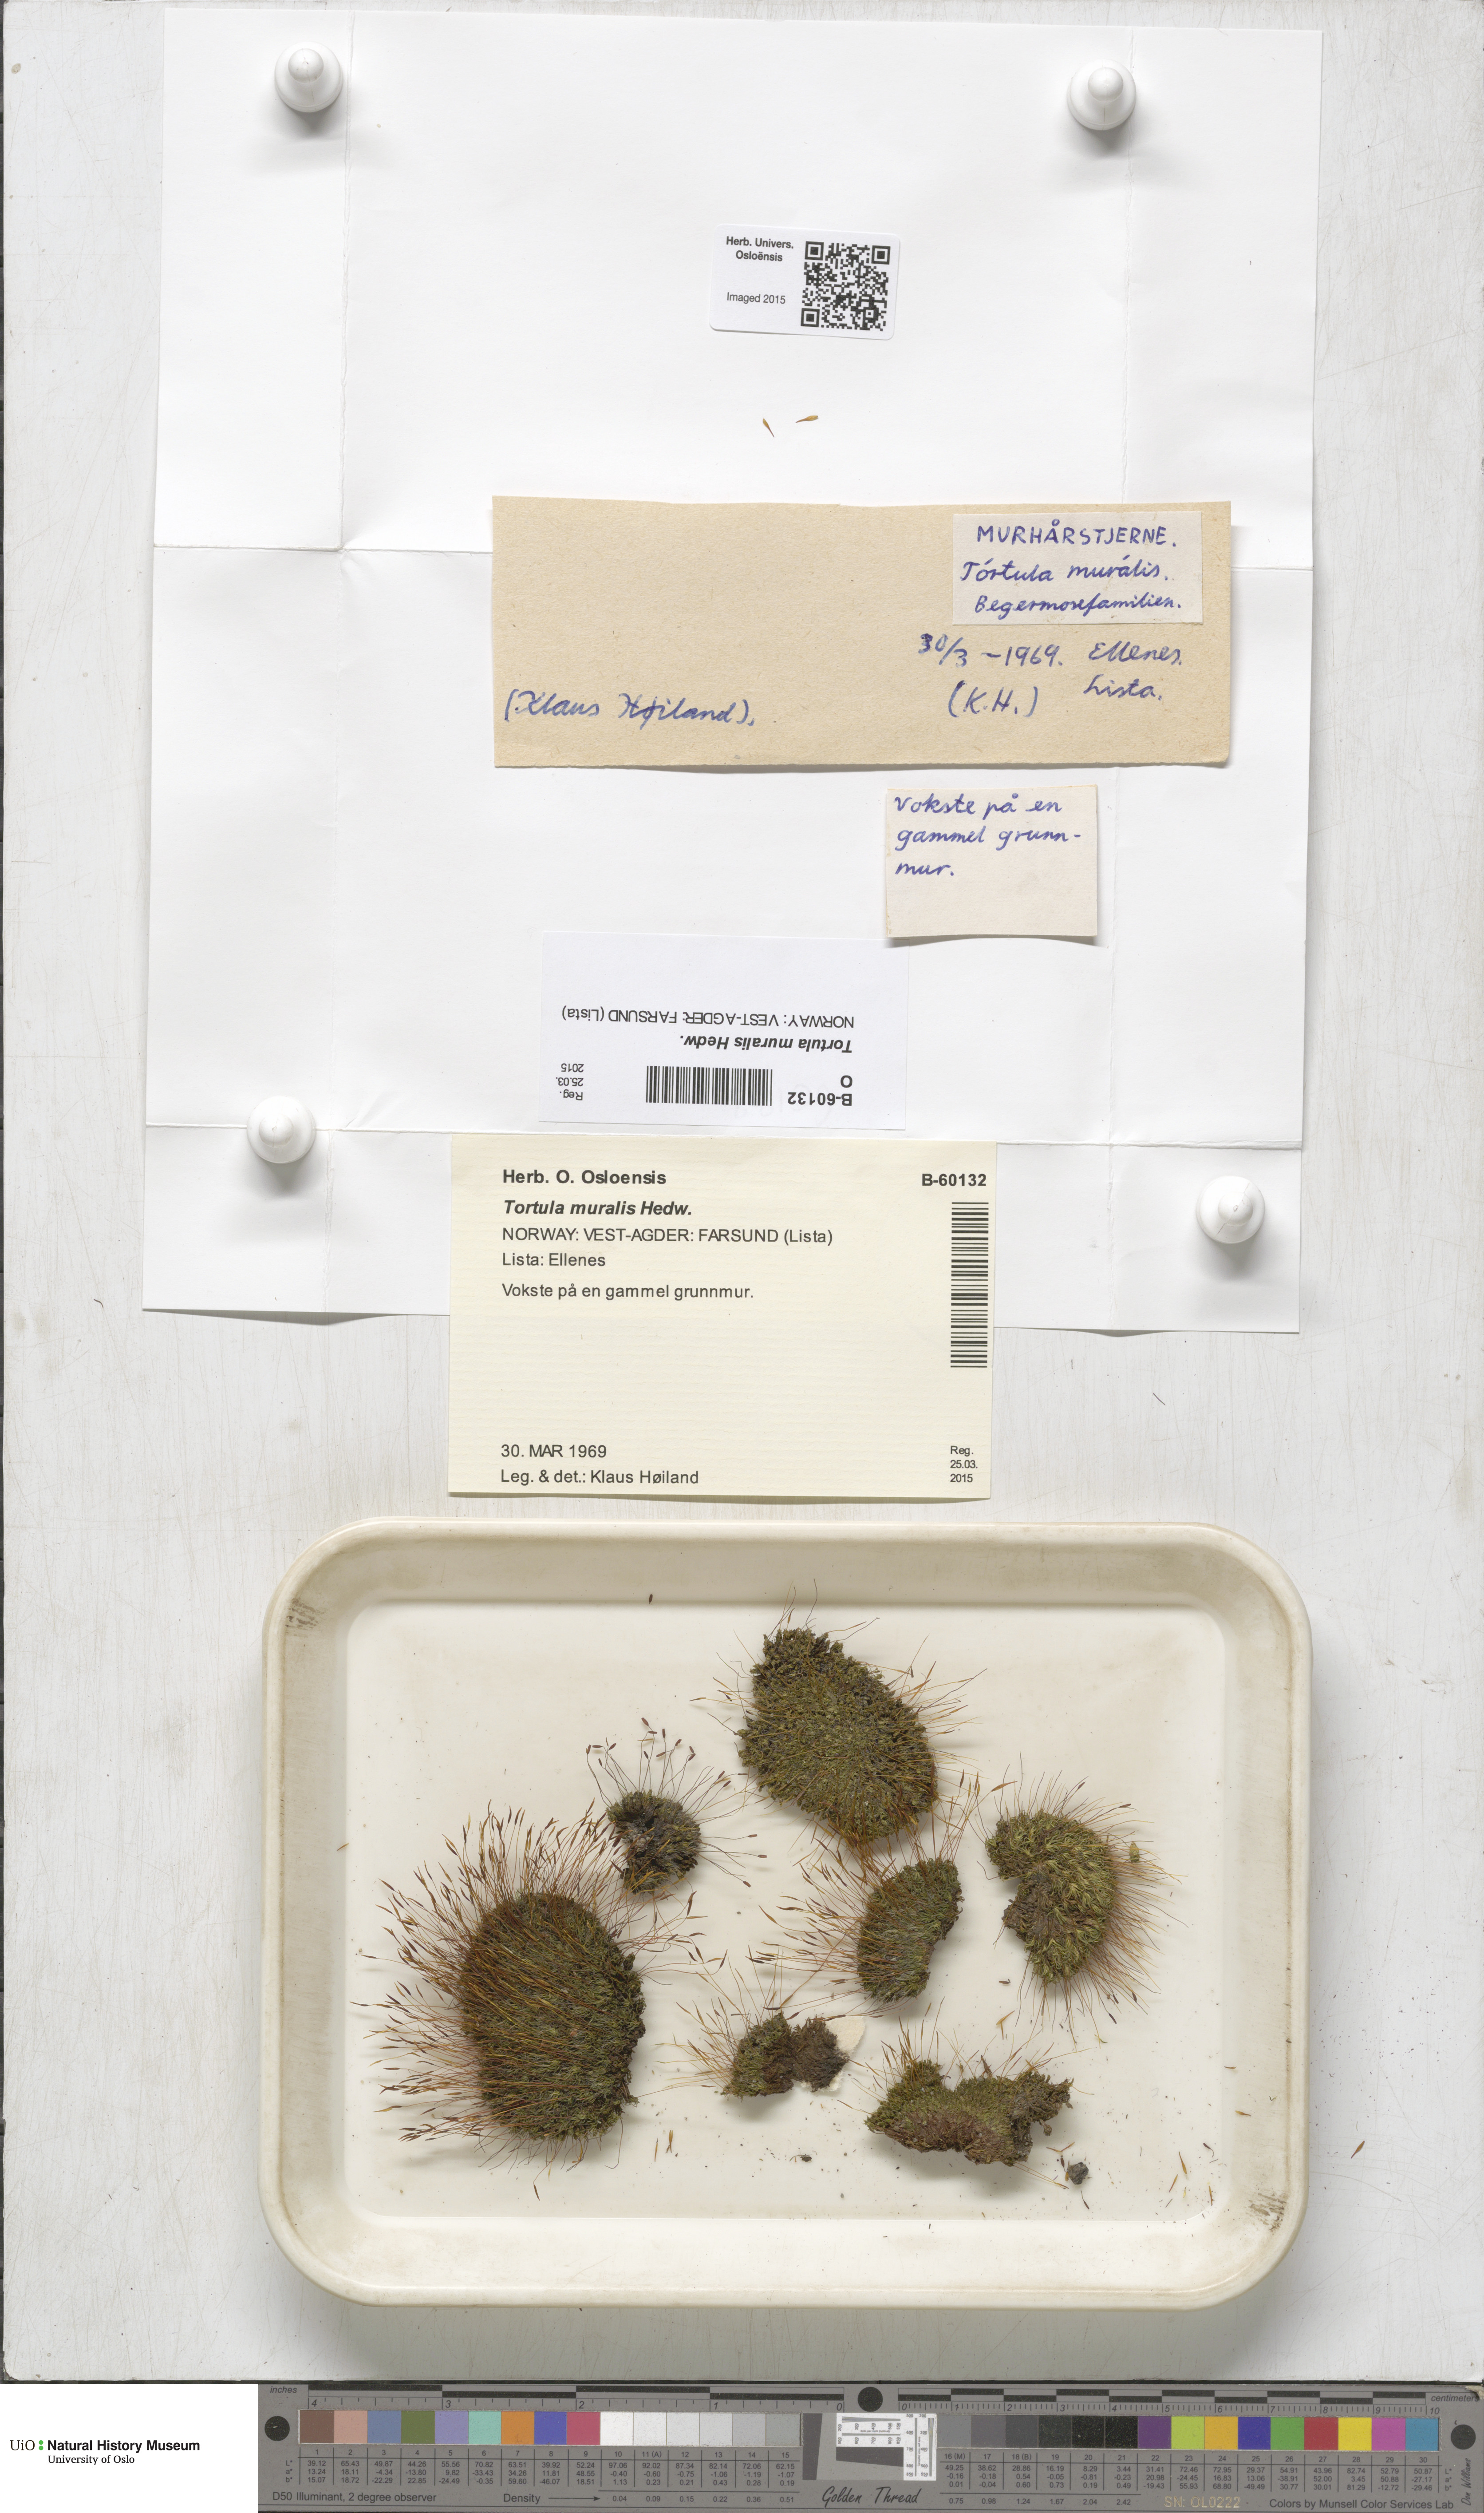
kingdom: Plantae
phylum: Bryophyta
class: Bryopsida
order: Pottiales
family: Pottiaceae
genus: Tortula
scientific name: Tortula muralis
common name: Wall screw-moss
